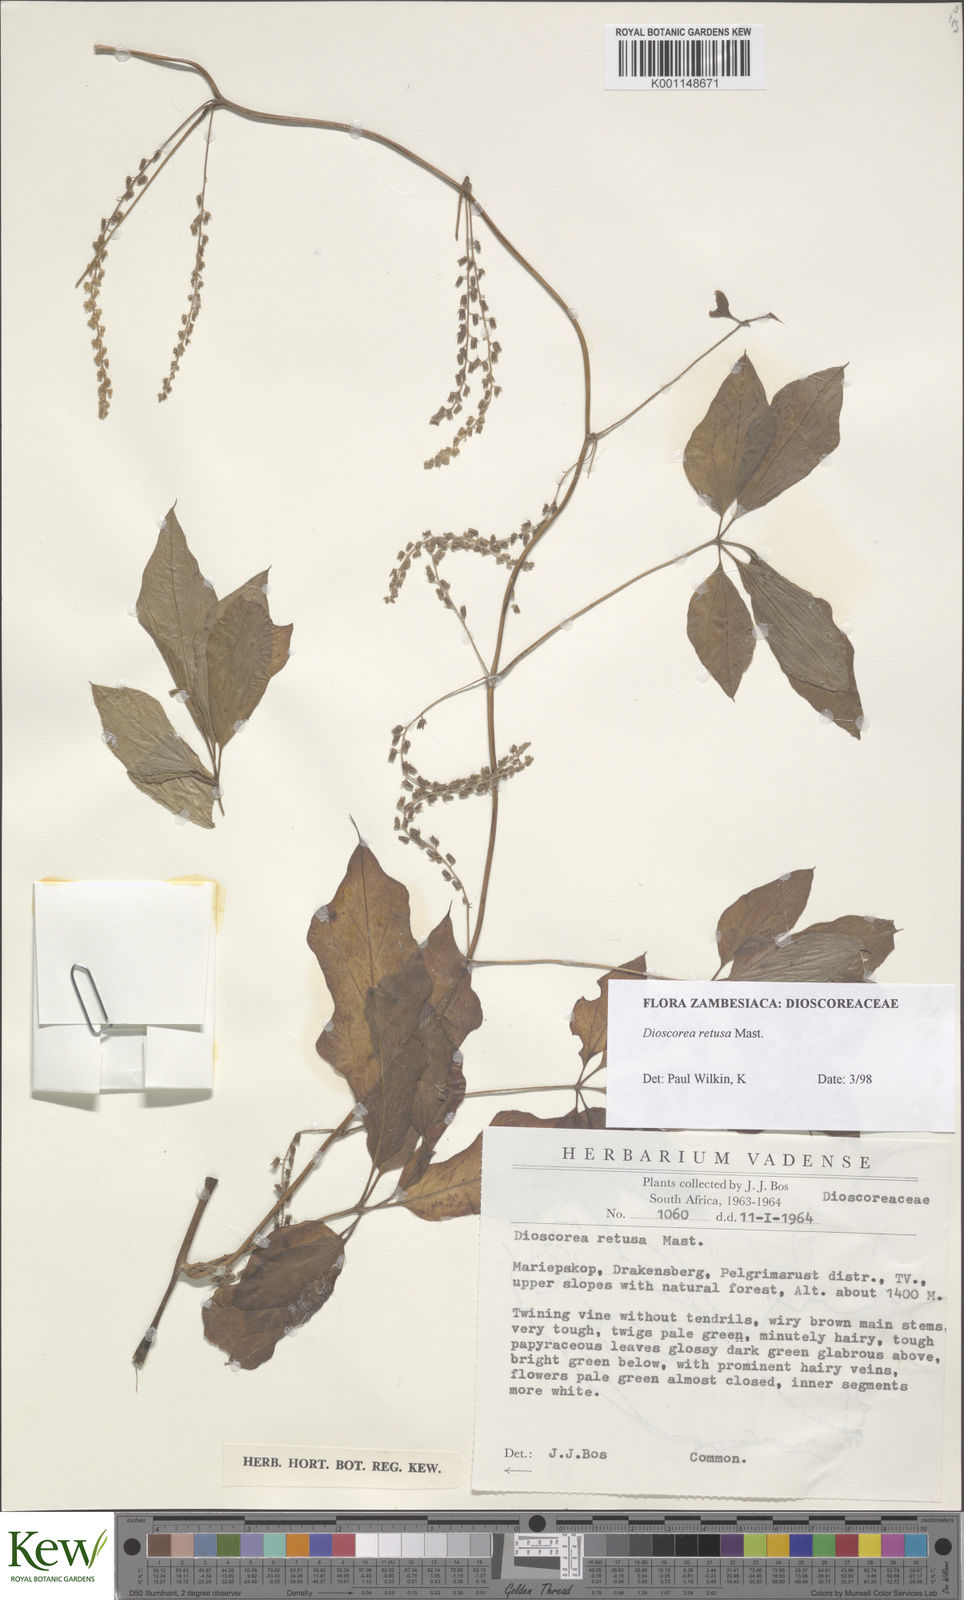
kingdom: Plantae
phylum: Tracheophyta
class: Liliopsida
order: Dioscoreales
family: Dioscoreaceae
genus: Dioscorea
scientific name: Dioscorea retusa
